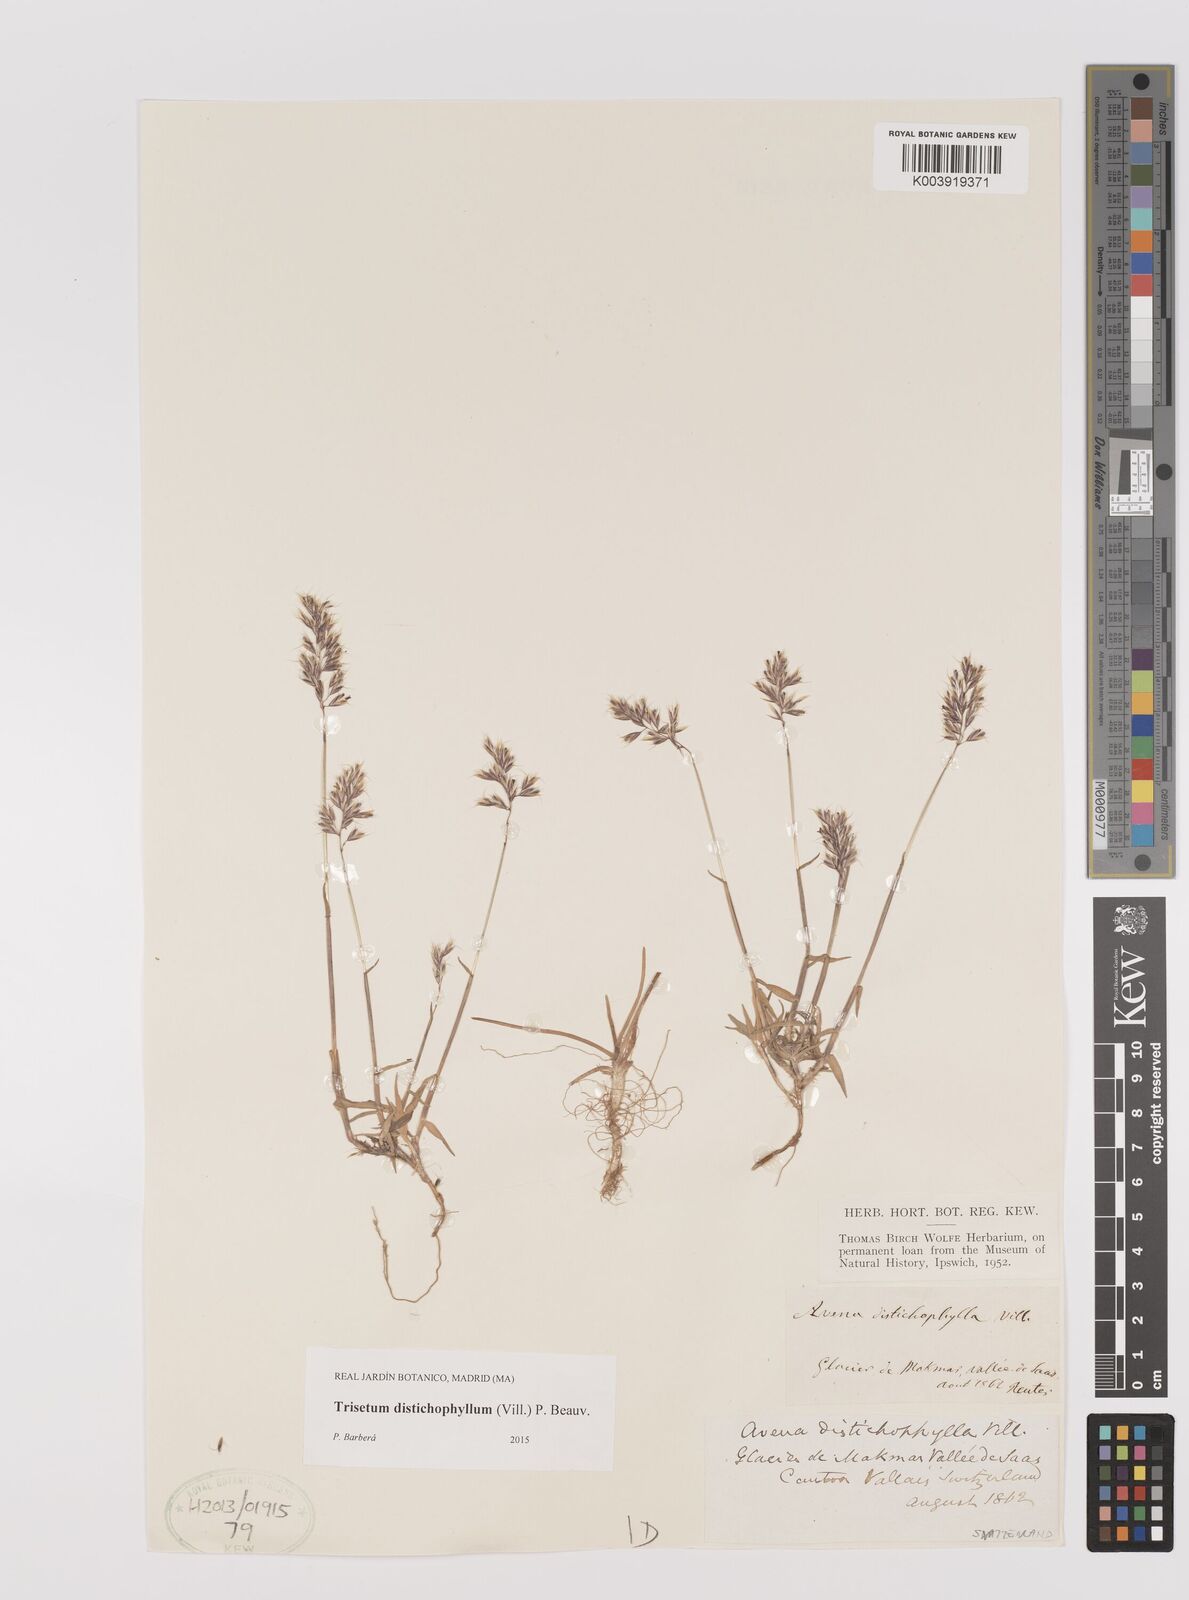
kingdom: Plantae
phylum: Tracheophyta
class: Liliopsida
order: Poales
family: Poaceae
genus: Acrospelion
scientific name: Acrospelion distichophyllum
